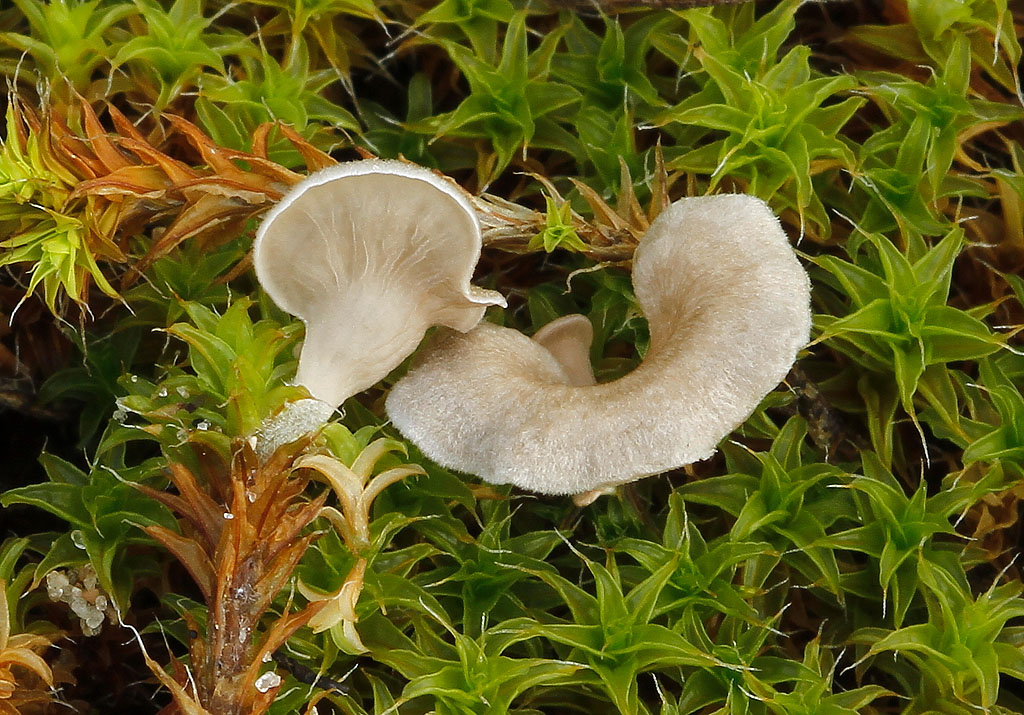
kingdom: Fungi
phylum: Basidiomycota
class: Agaricomycetes
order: Agaricales
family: Hygrophoraceae
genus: Arrhenia
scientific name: Arrhenia spathulata
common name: skæv fontænehat
